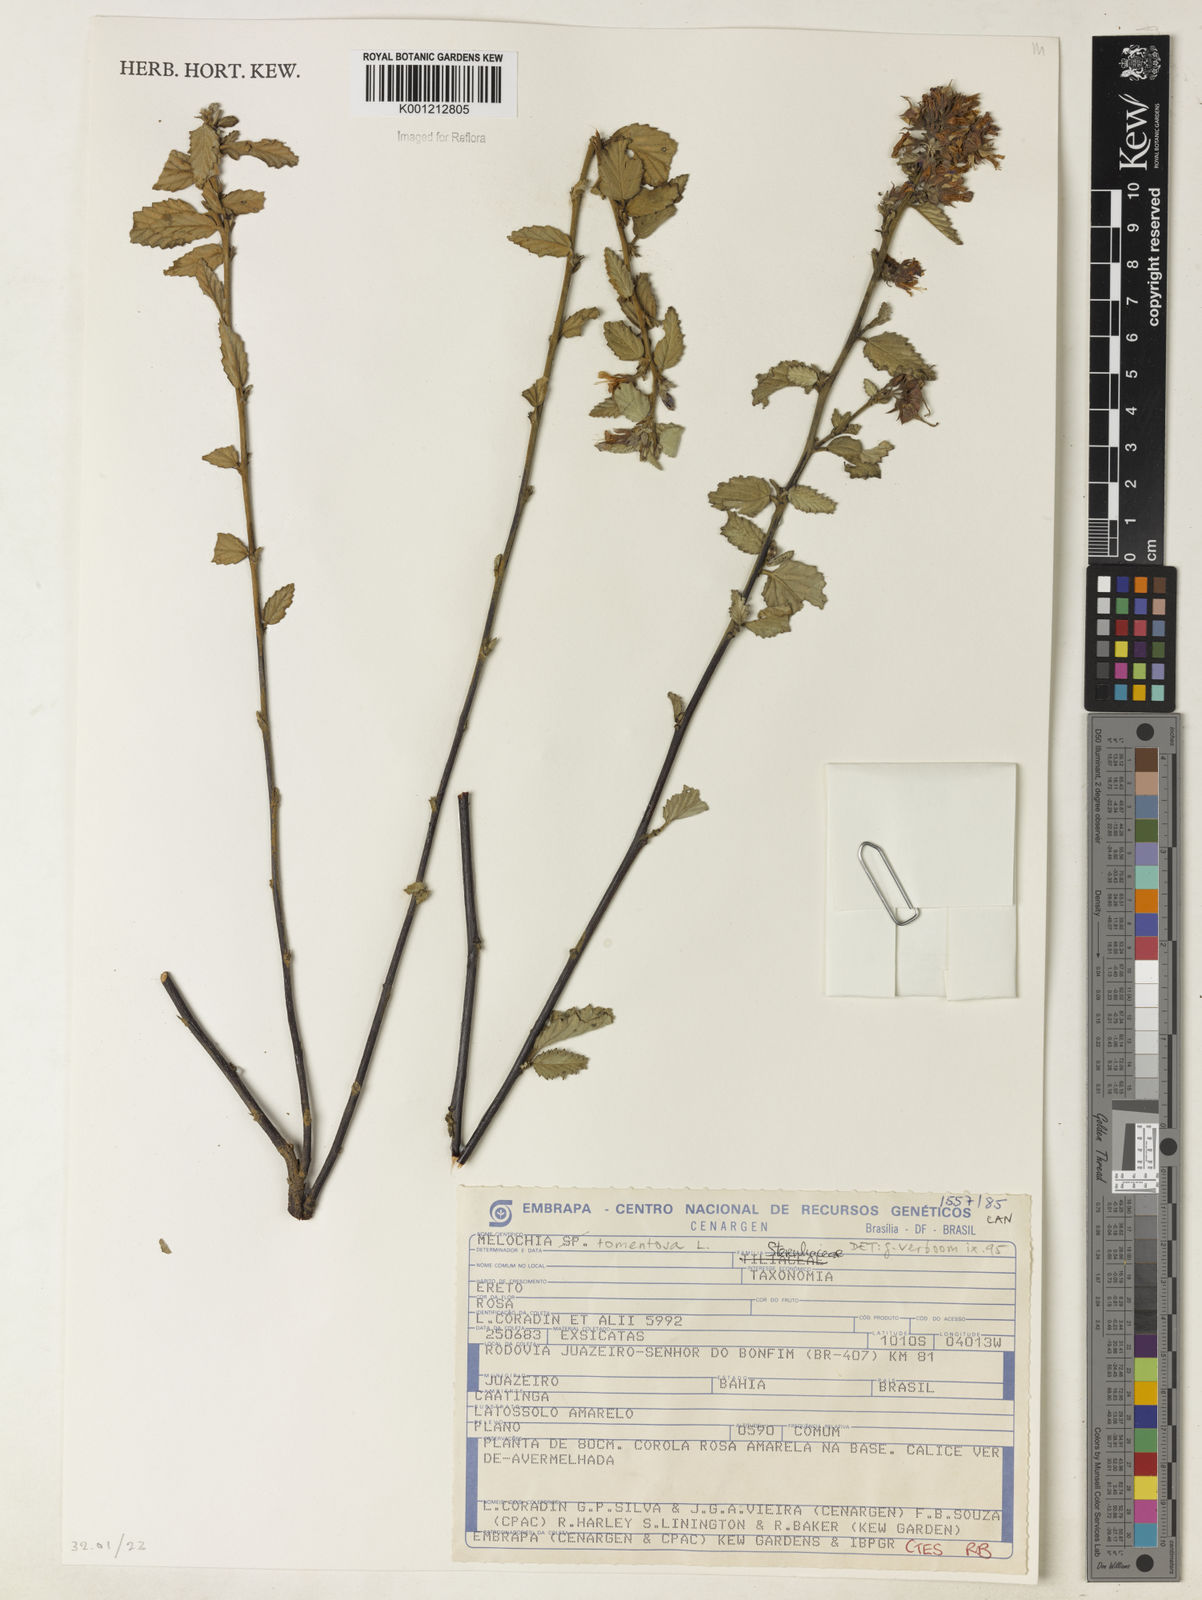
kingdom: Plantae
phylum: Tracheophyta
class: Magnoliopsida
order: Malvales
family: Malvaceae
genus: Melochia
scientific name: Melochia tomentosa
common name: Black torch
